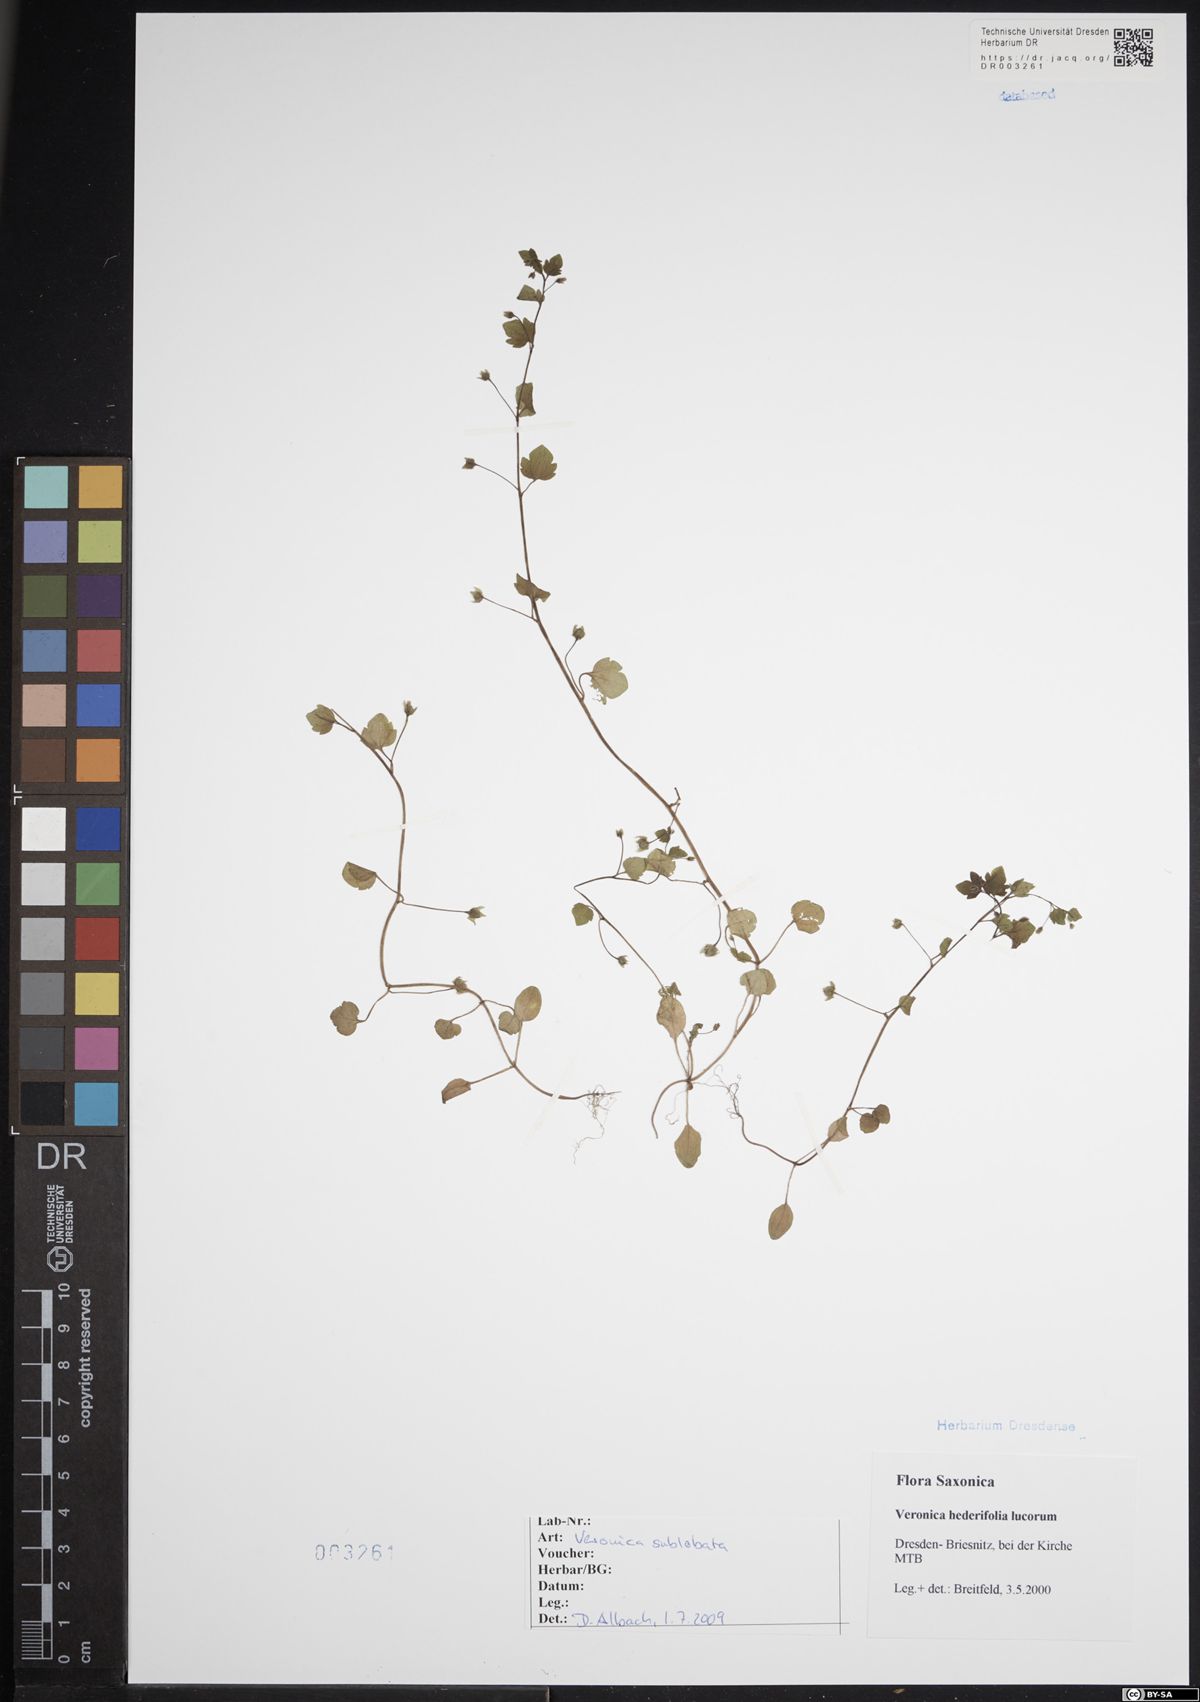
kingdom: Plantae
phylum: Tracheophyta
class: Magnoliopsida
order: Lamiales
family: Plantaginaceae
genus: Veronica
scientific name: Veronica sublobata
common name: False ivy-leaved speedwell
